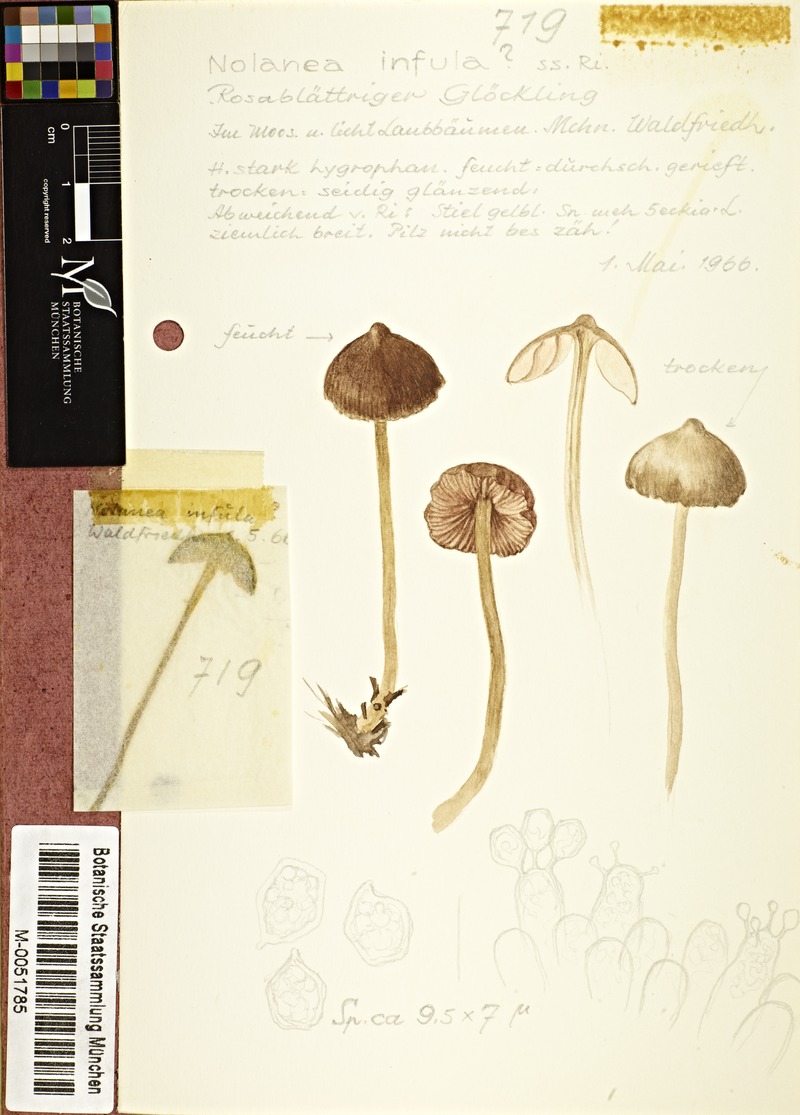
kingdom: Fungi
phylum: Basidiomycota
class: Agaricomycetes
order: Agaricales
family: Entolomataceae
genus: Entoloma
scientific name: Entoloma infula
